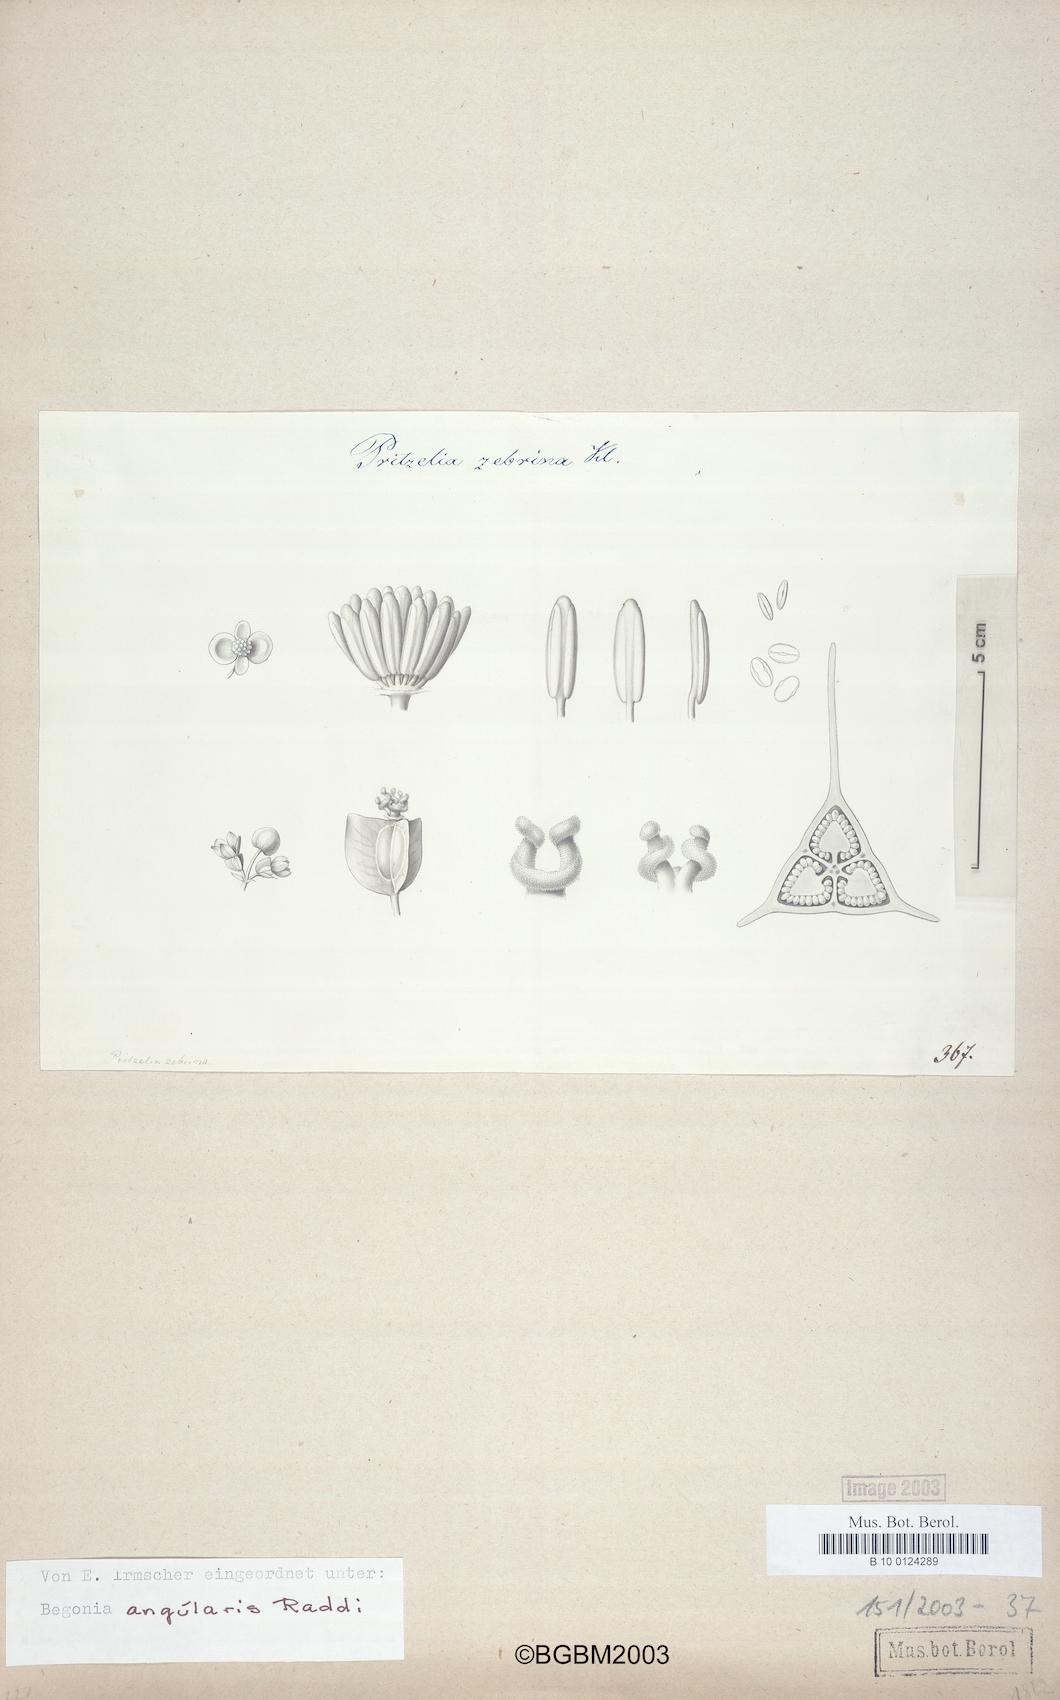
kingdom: Plantae
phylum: Tracheophyta
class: Magnoliopsida
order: Cucurbitales
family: Begoniaceae
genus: Begonia
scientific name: Begonia angularis
